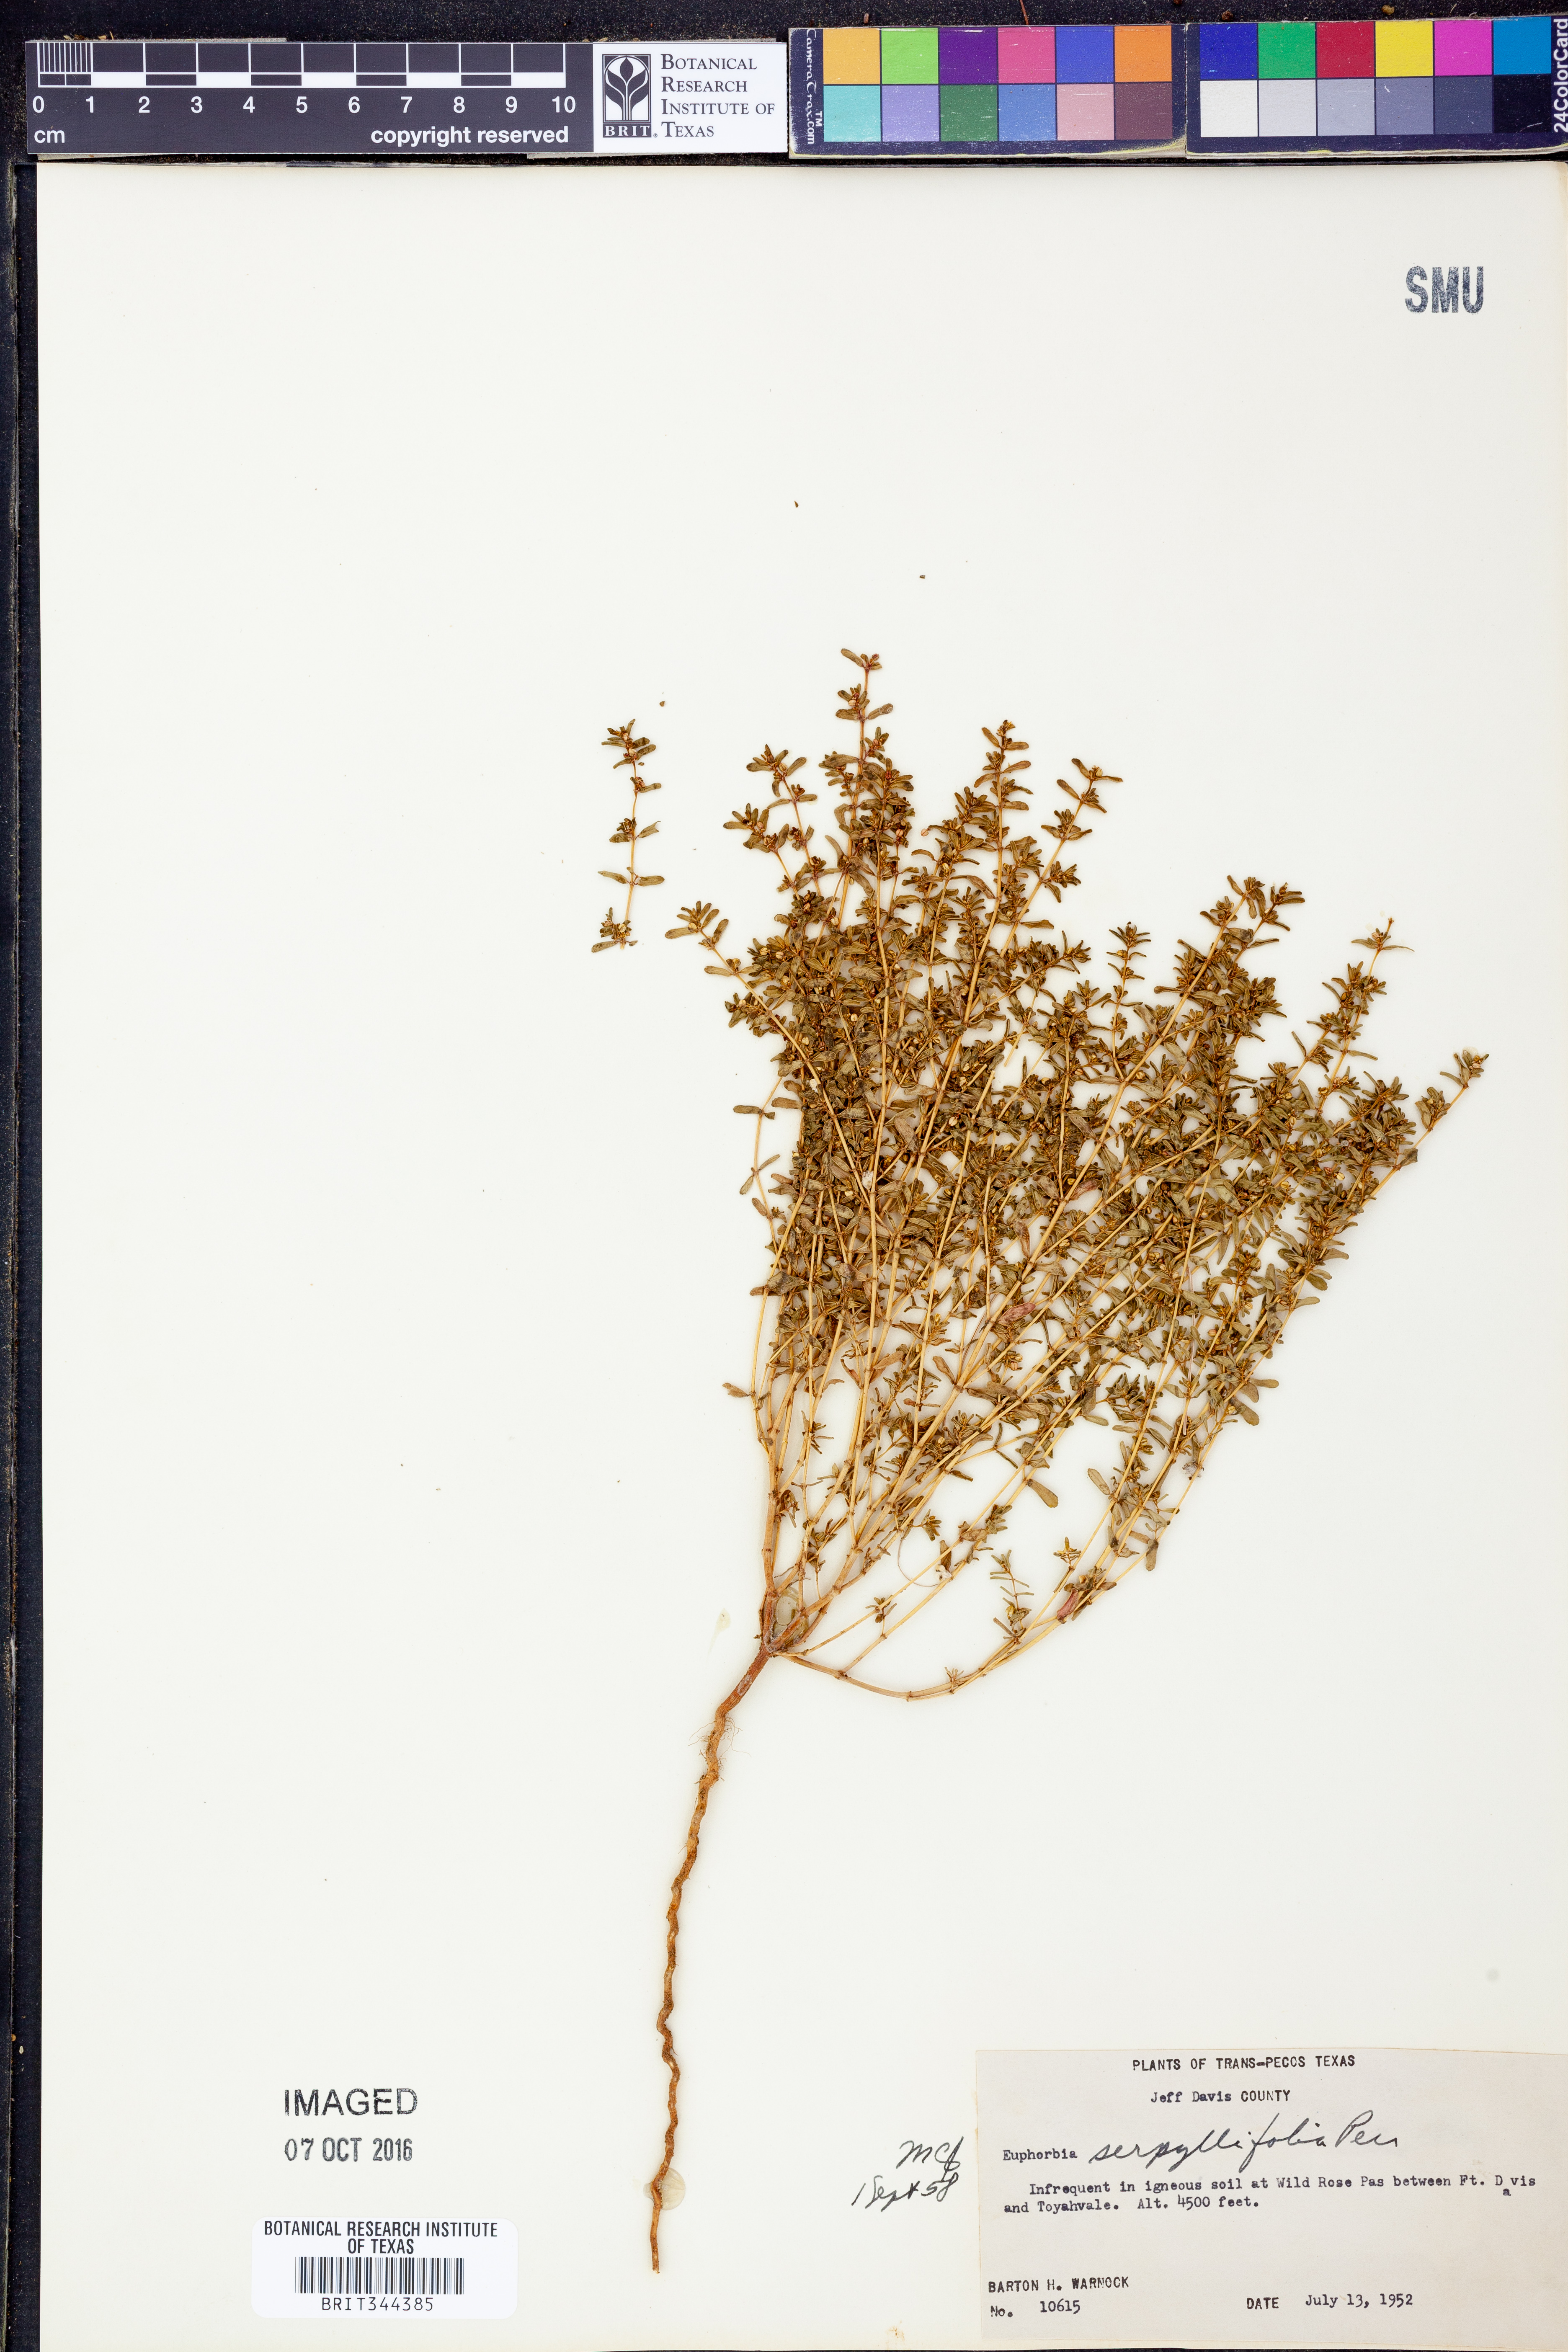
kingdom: Plantae
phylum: Tracheophyta
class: Magnoliopsida
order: Malpighiales
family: Euphorbiaceae
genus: Euphorbia
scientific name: Euphorbia serpillifolia
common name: Thyme-leaf spurge
